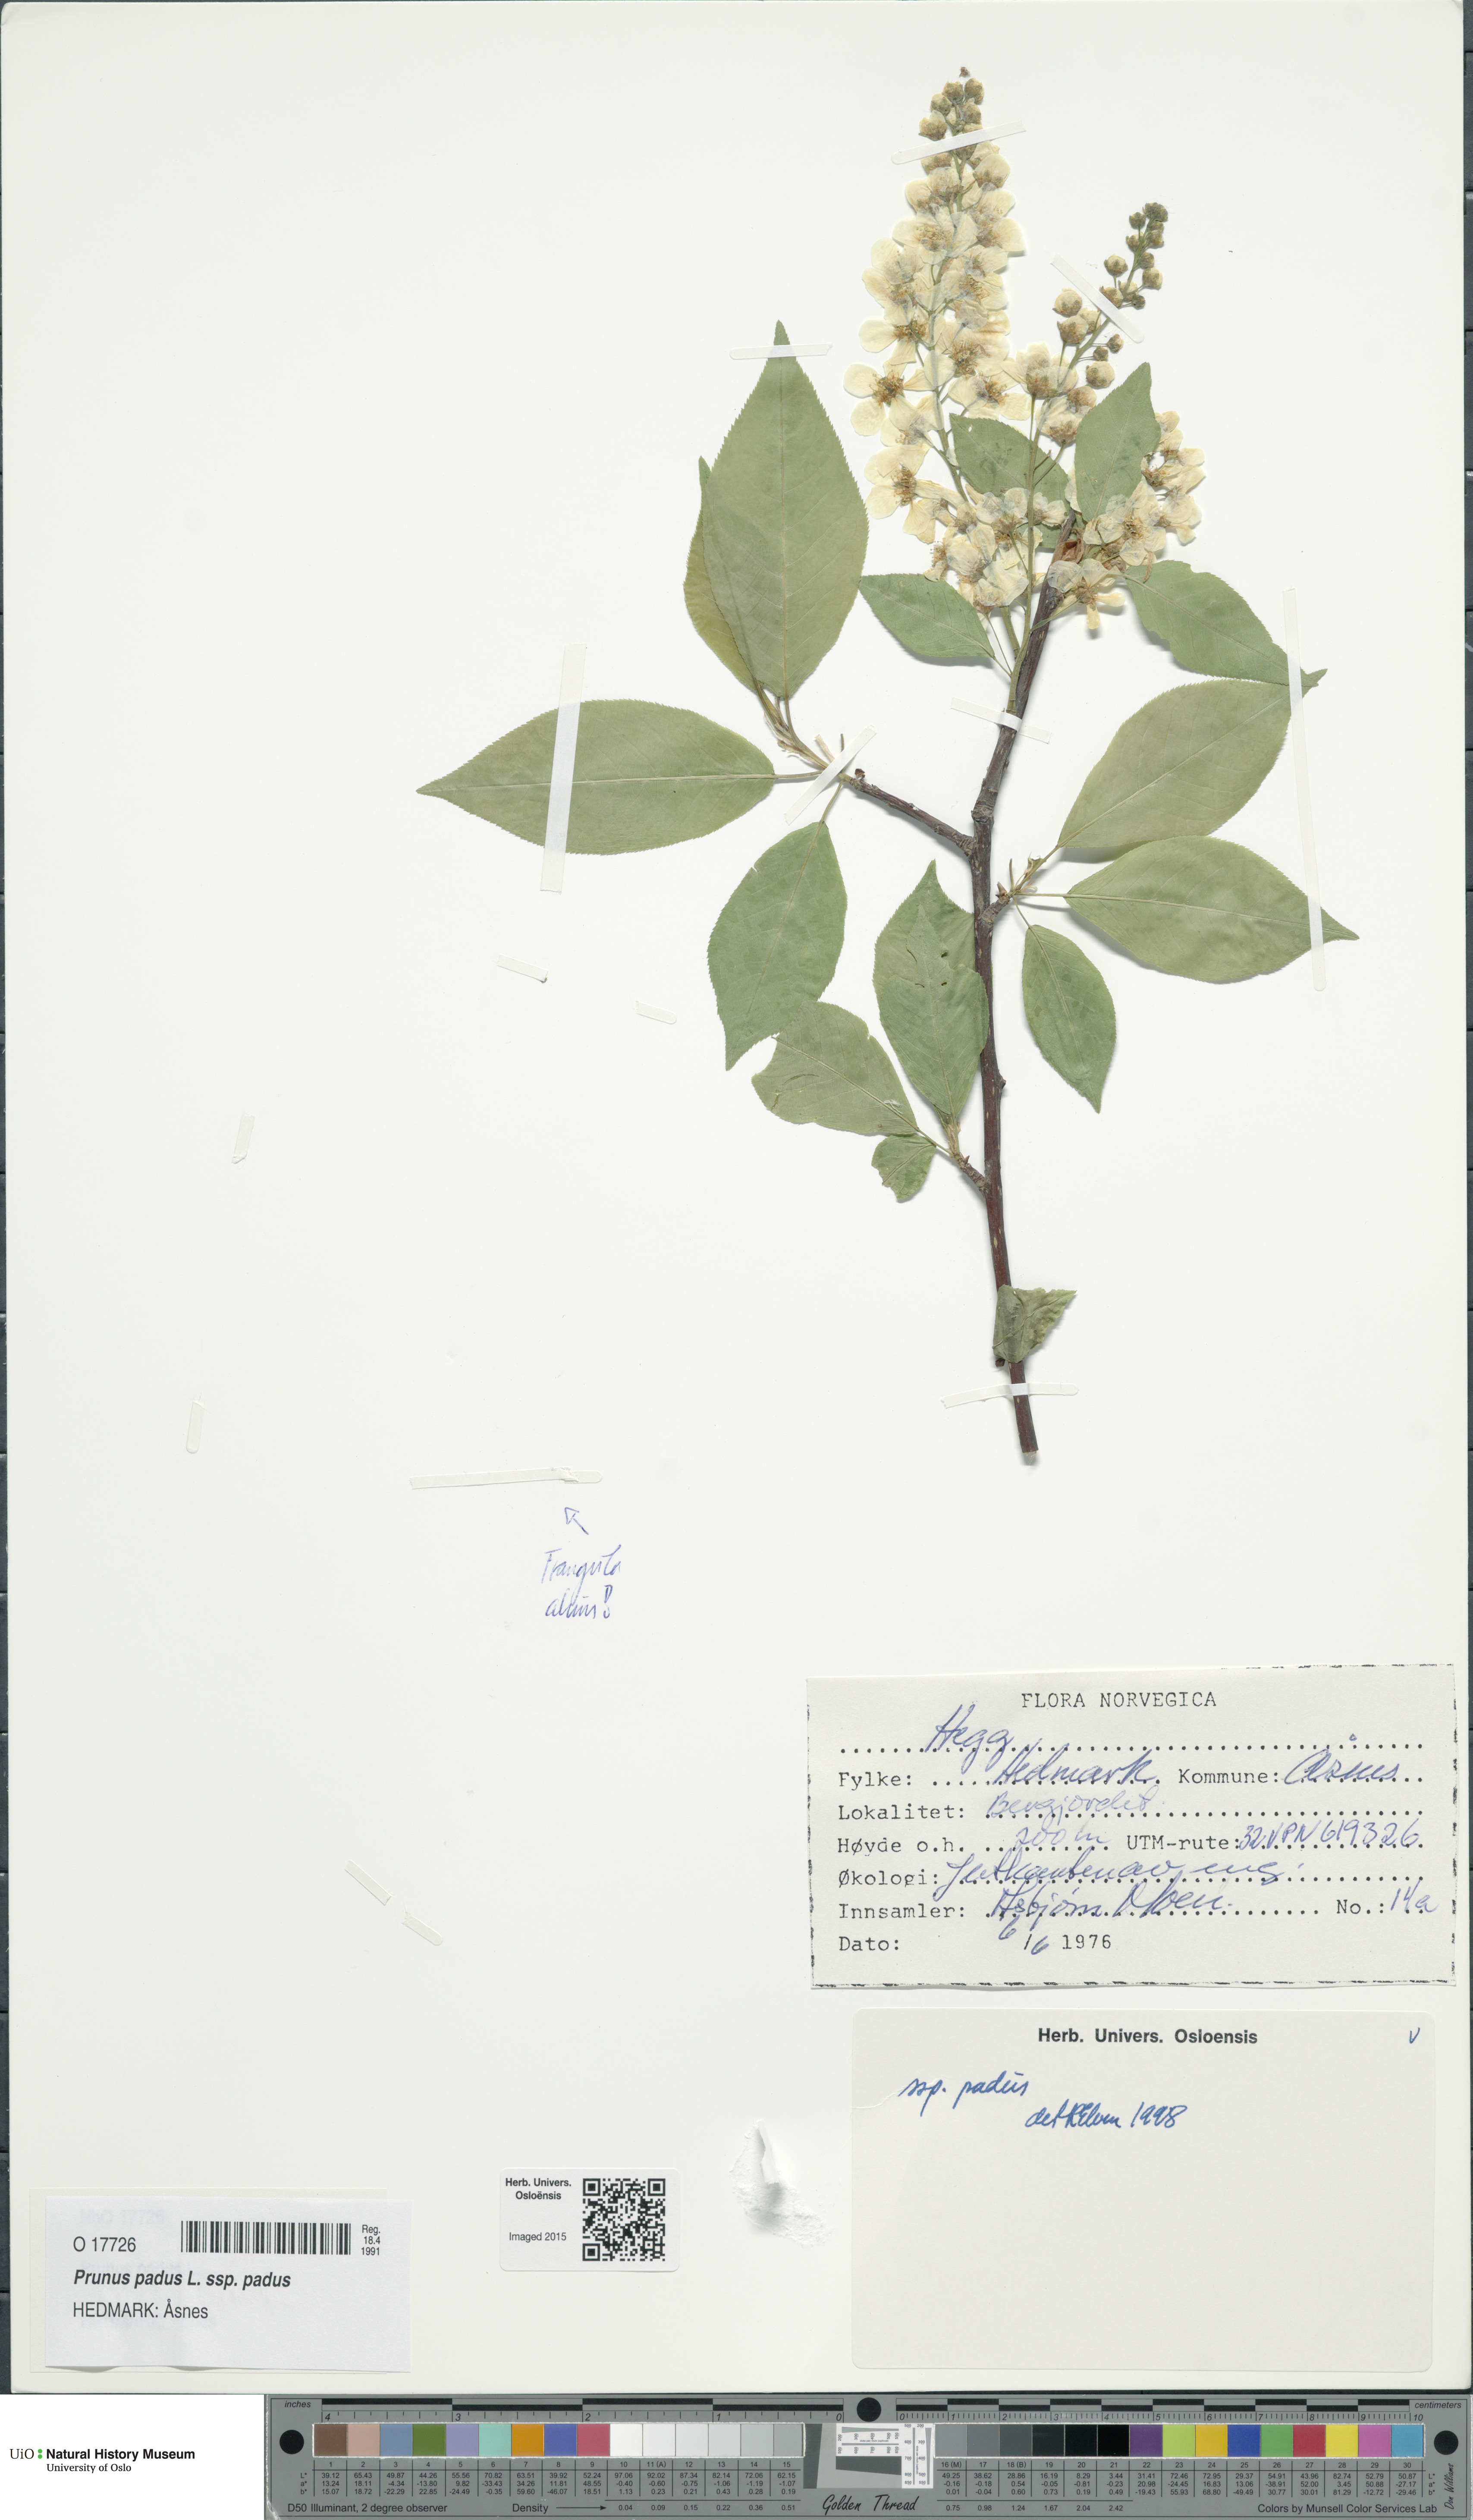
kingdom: Plantae
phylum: Tracheophyta
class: Magnoliopsida
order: Rosales
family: Rosaceae
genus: Prunus
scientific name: Prunus padus
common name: Bird cherry
